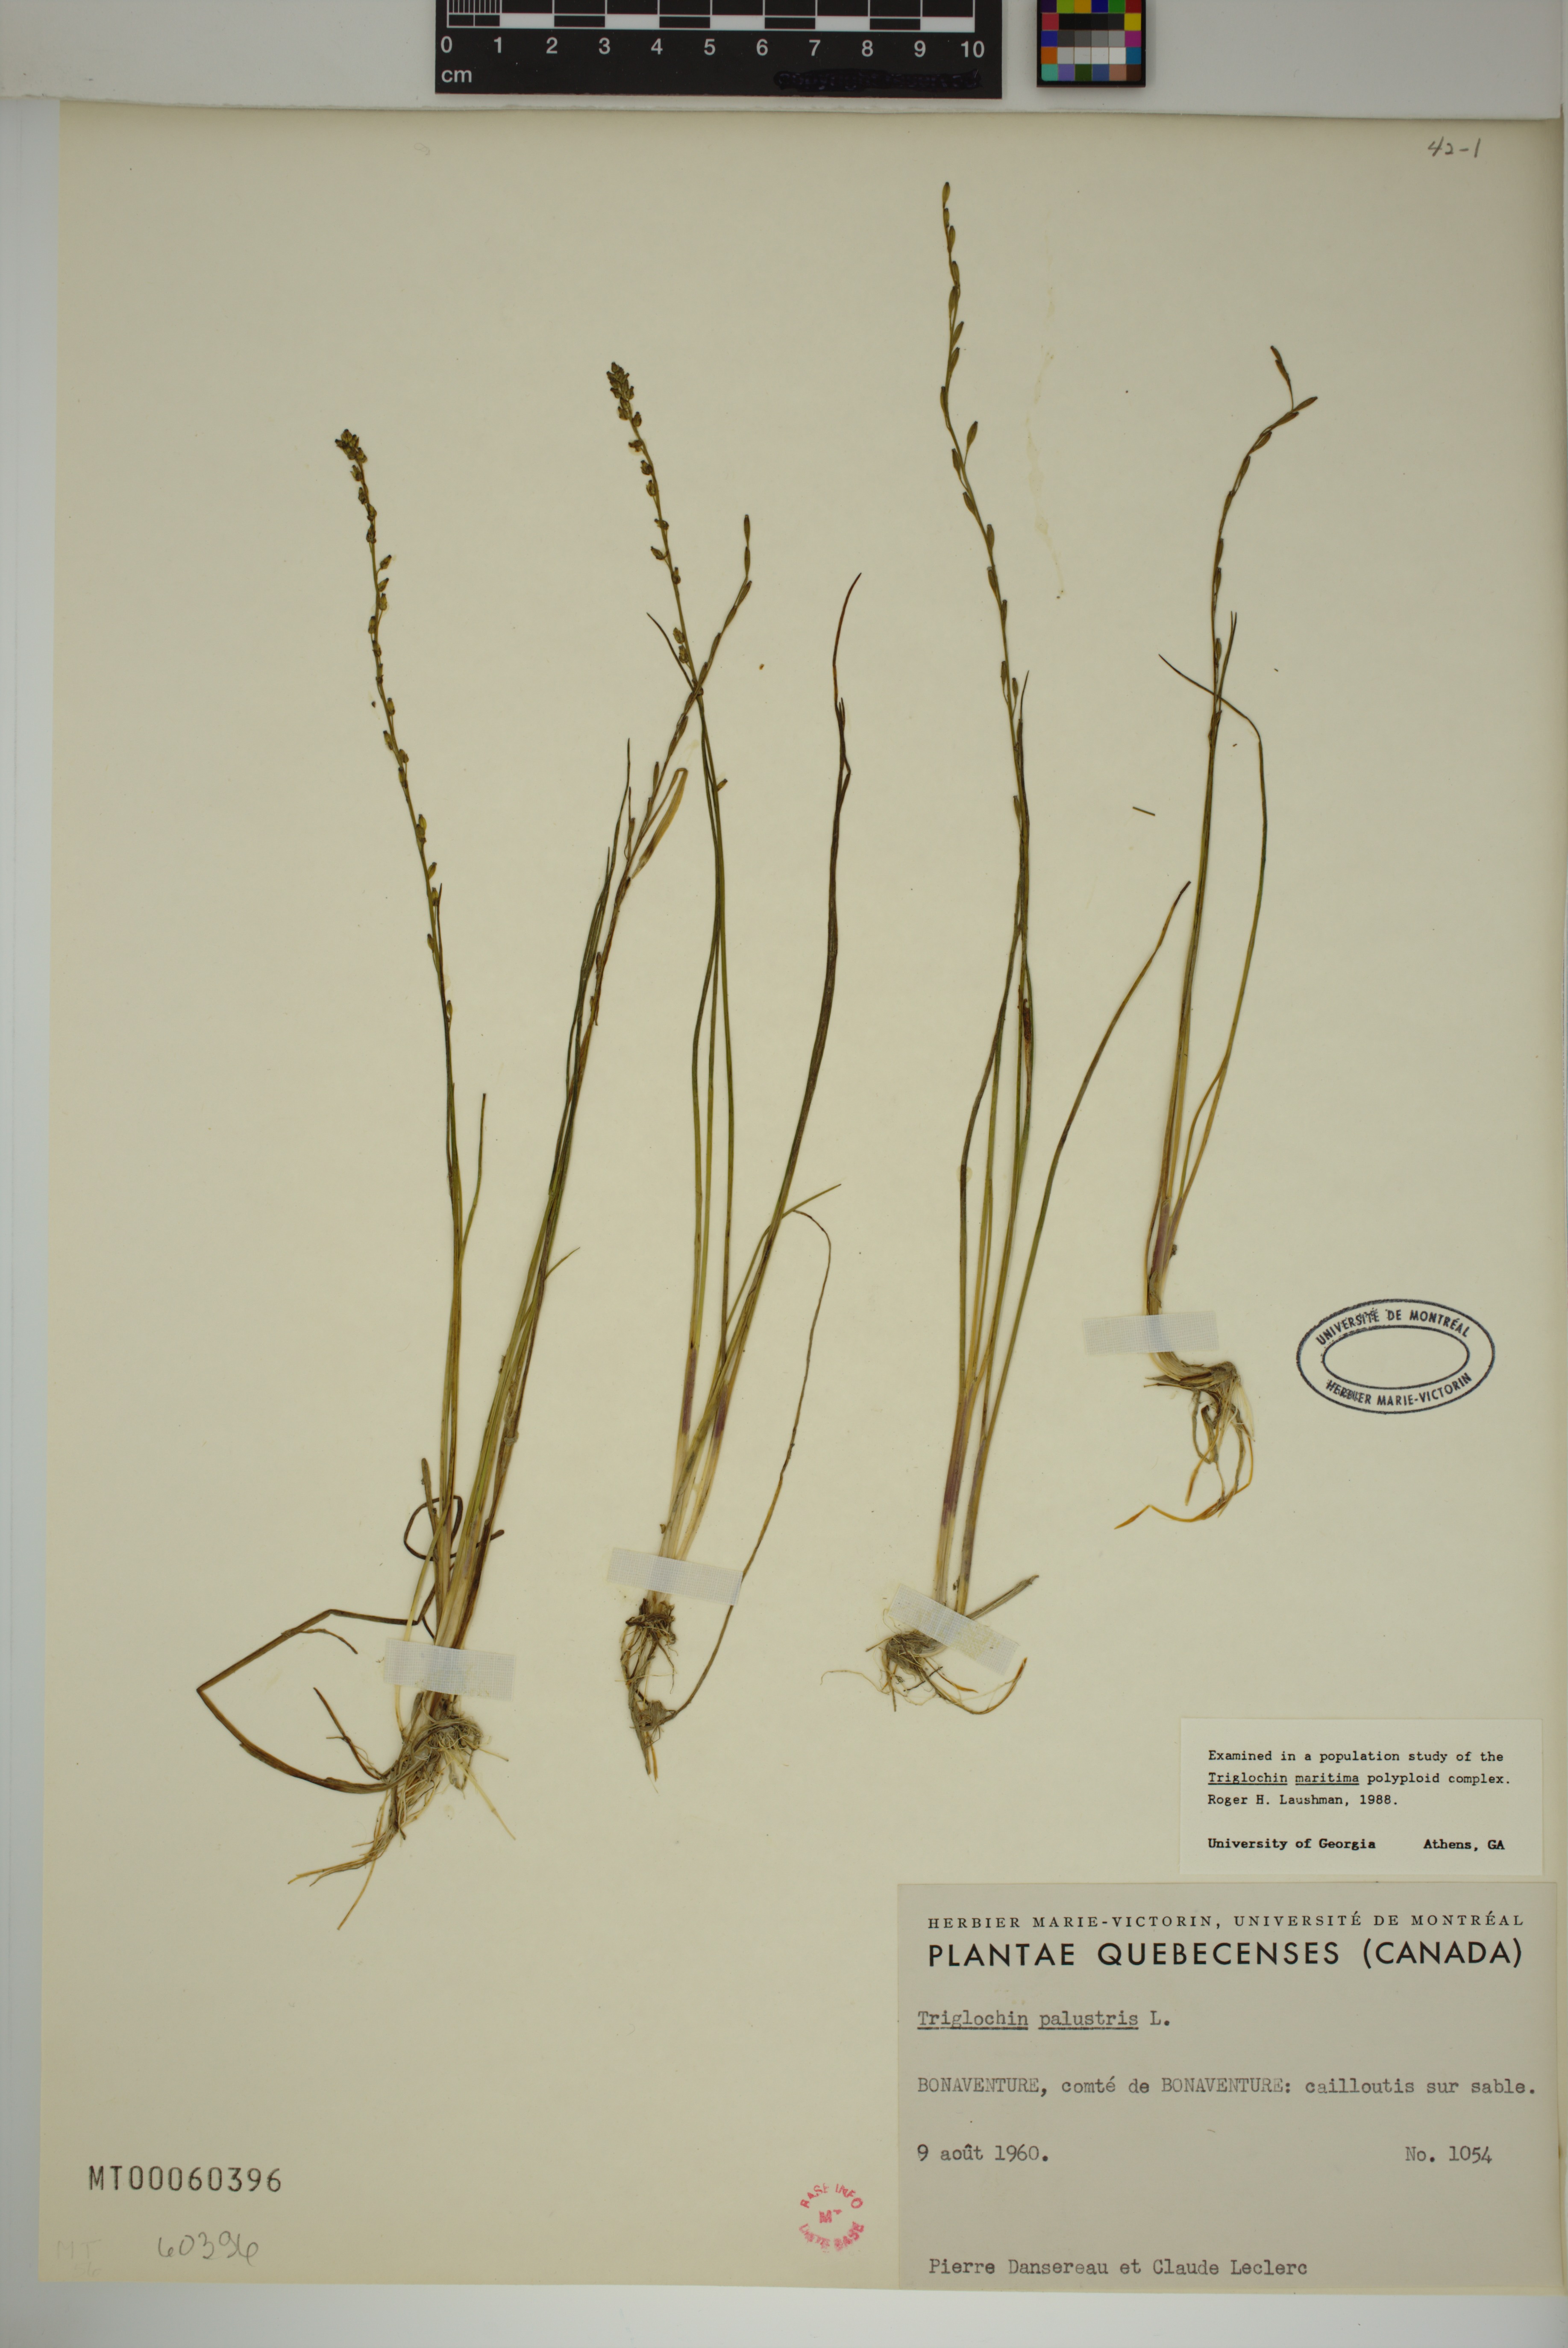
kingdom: Plantae
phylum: Tracheophyta
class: Liliopsida
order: Alismatales
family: Juncaginaceae
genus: Triglochin
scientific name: Triglochin palustris
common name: Marsh arrowgrass
